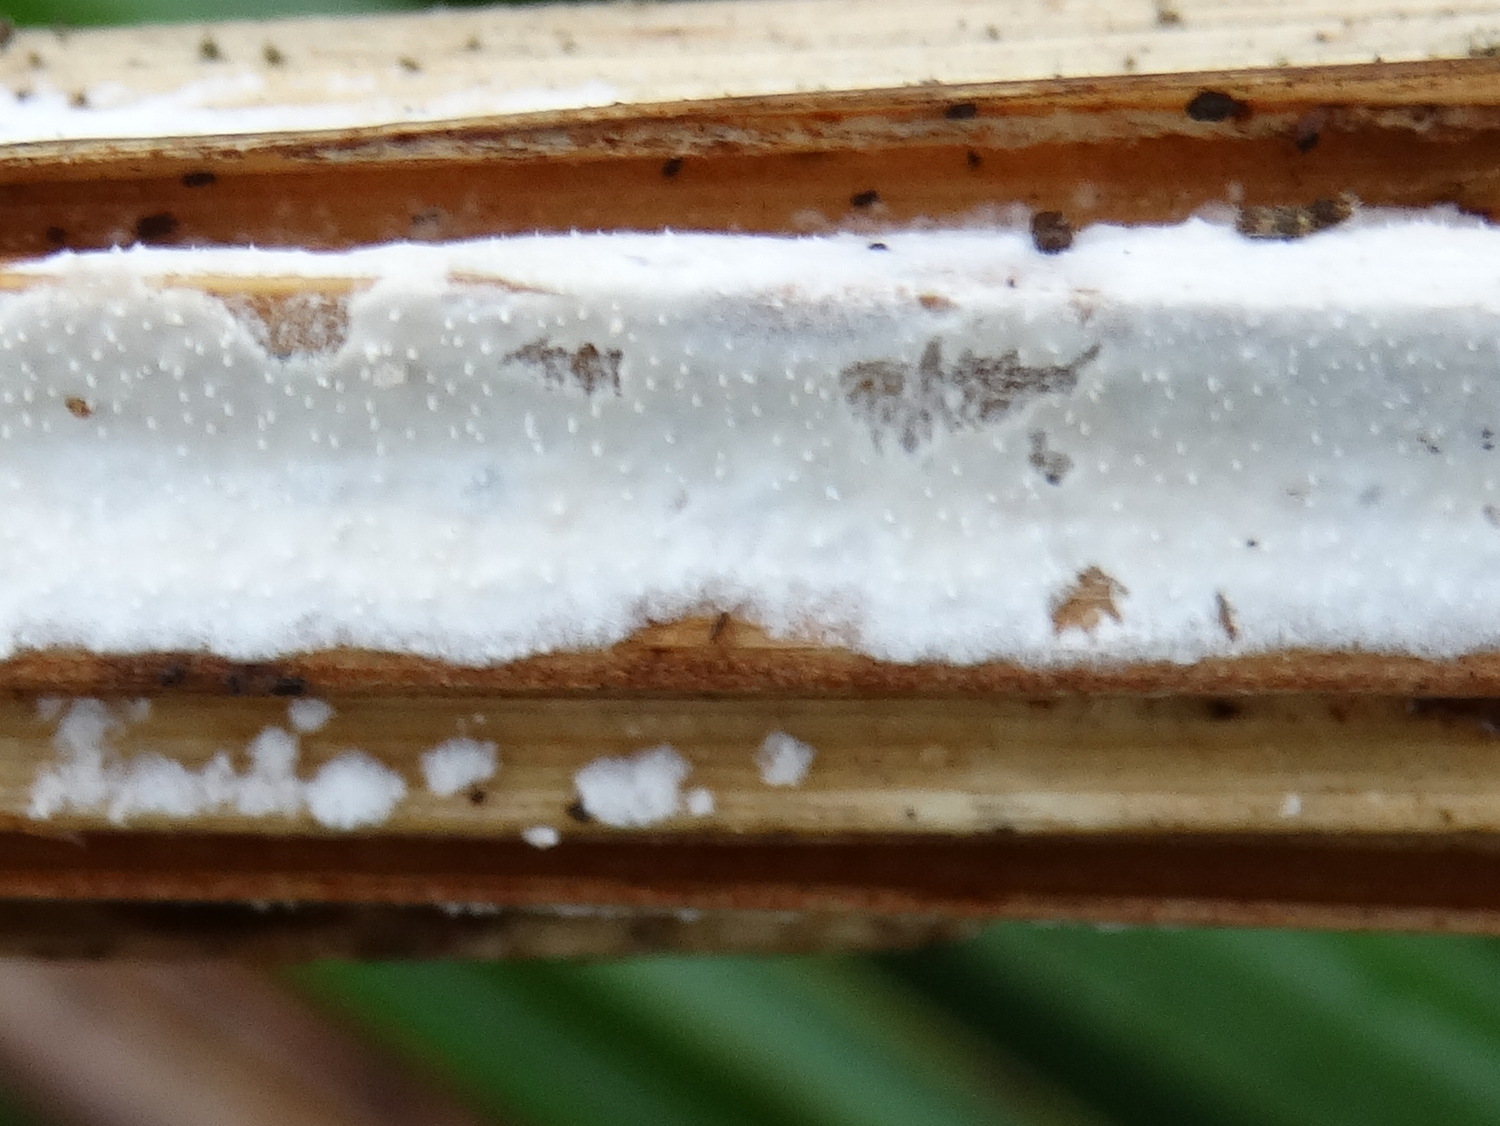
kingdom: Fungi
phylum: Basidiomycota
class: Agaricomycetes
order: Polyporales
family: Polyporaceae
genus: Epithele
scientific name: Epithele typhae
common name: starpig
